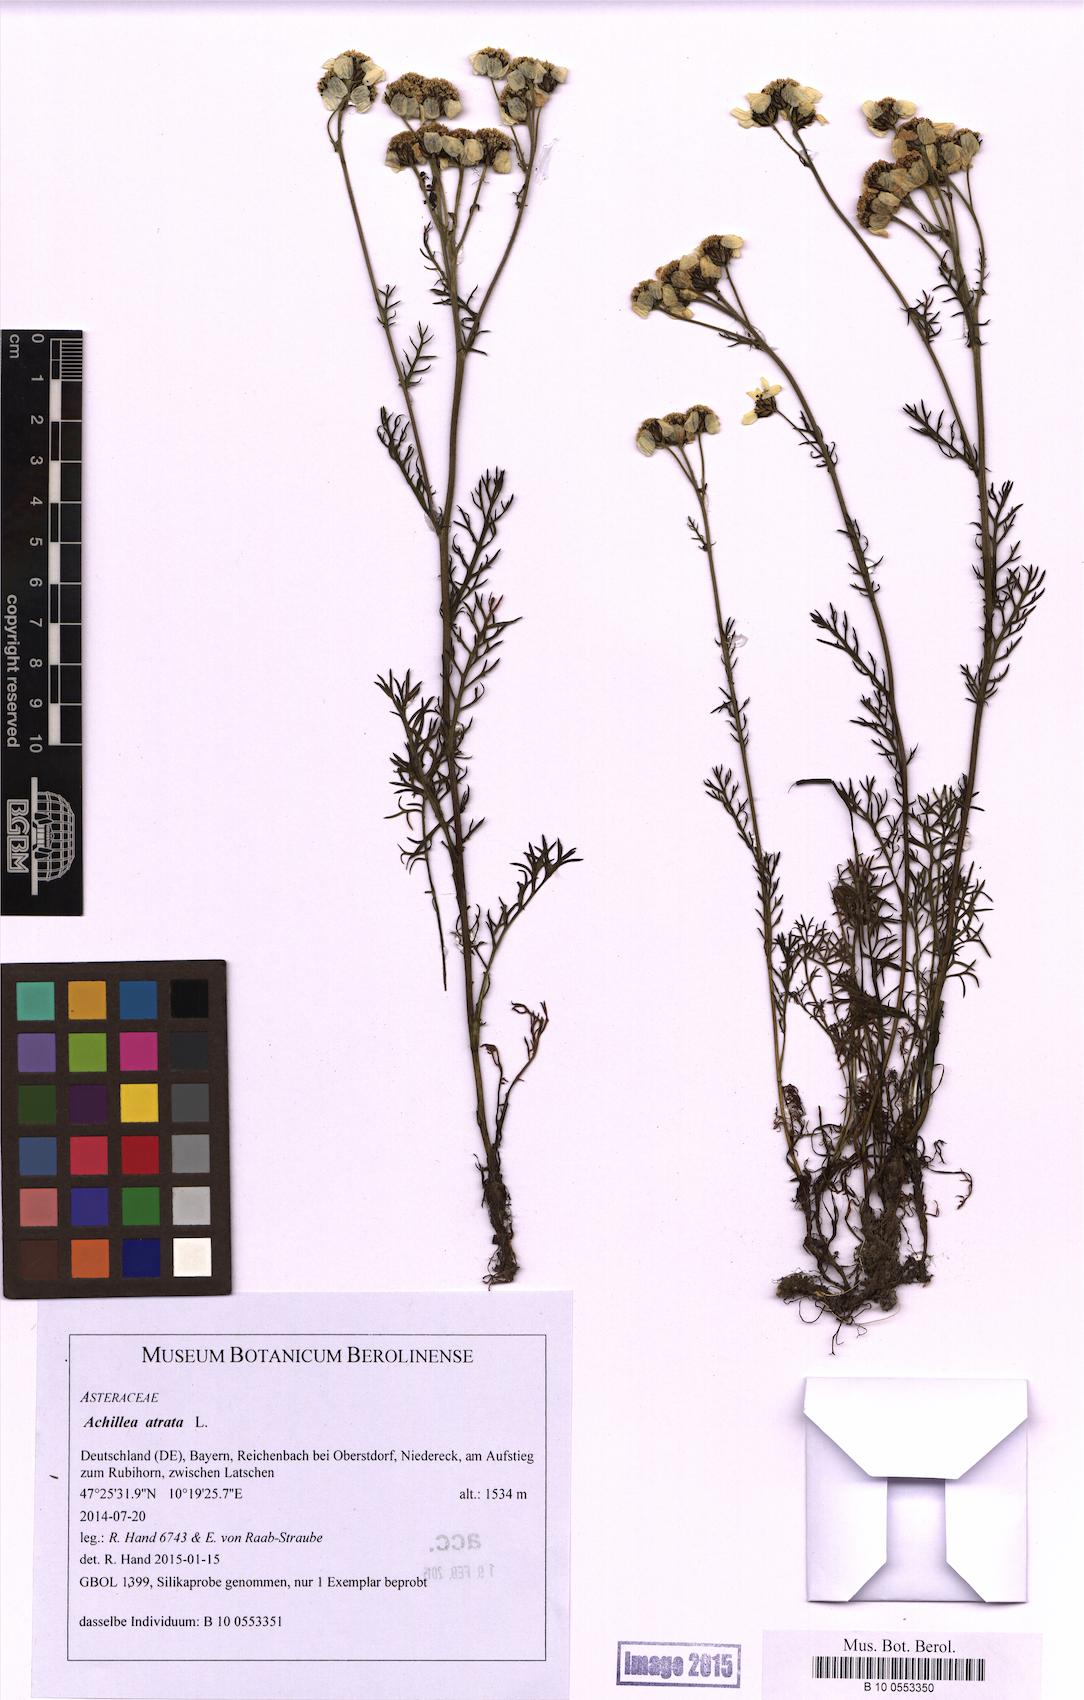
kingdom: Plantae
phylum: Tracheophyta
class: Magnoliopsida
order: Asterales
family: Asteraceae
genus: Achillea
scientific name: Achillea atrata
